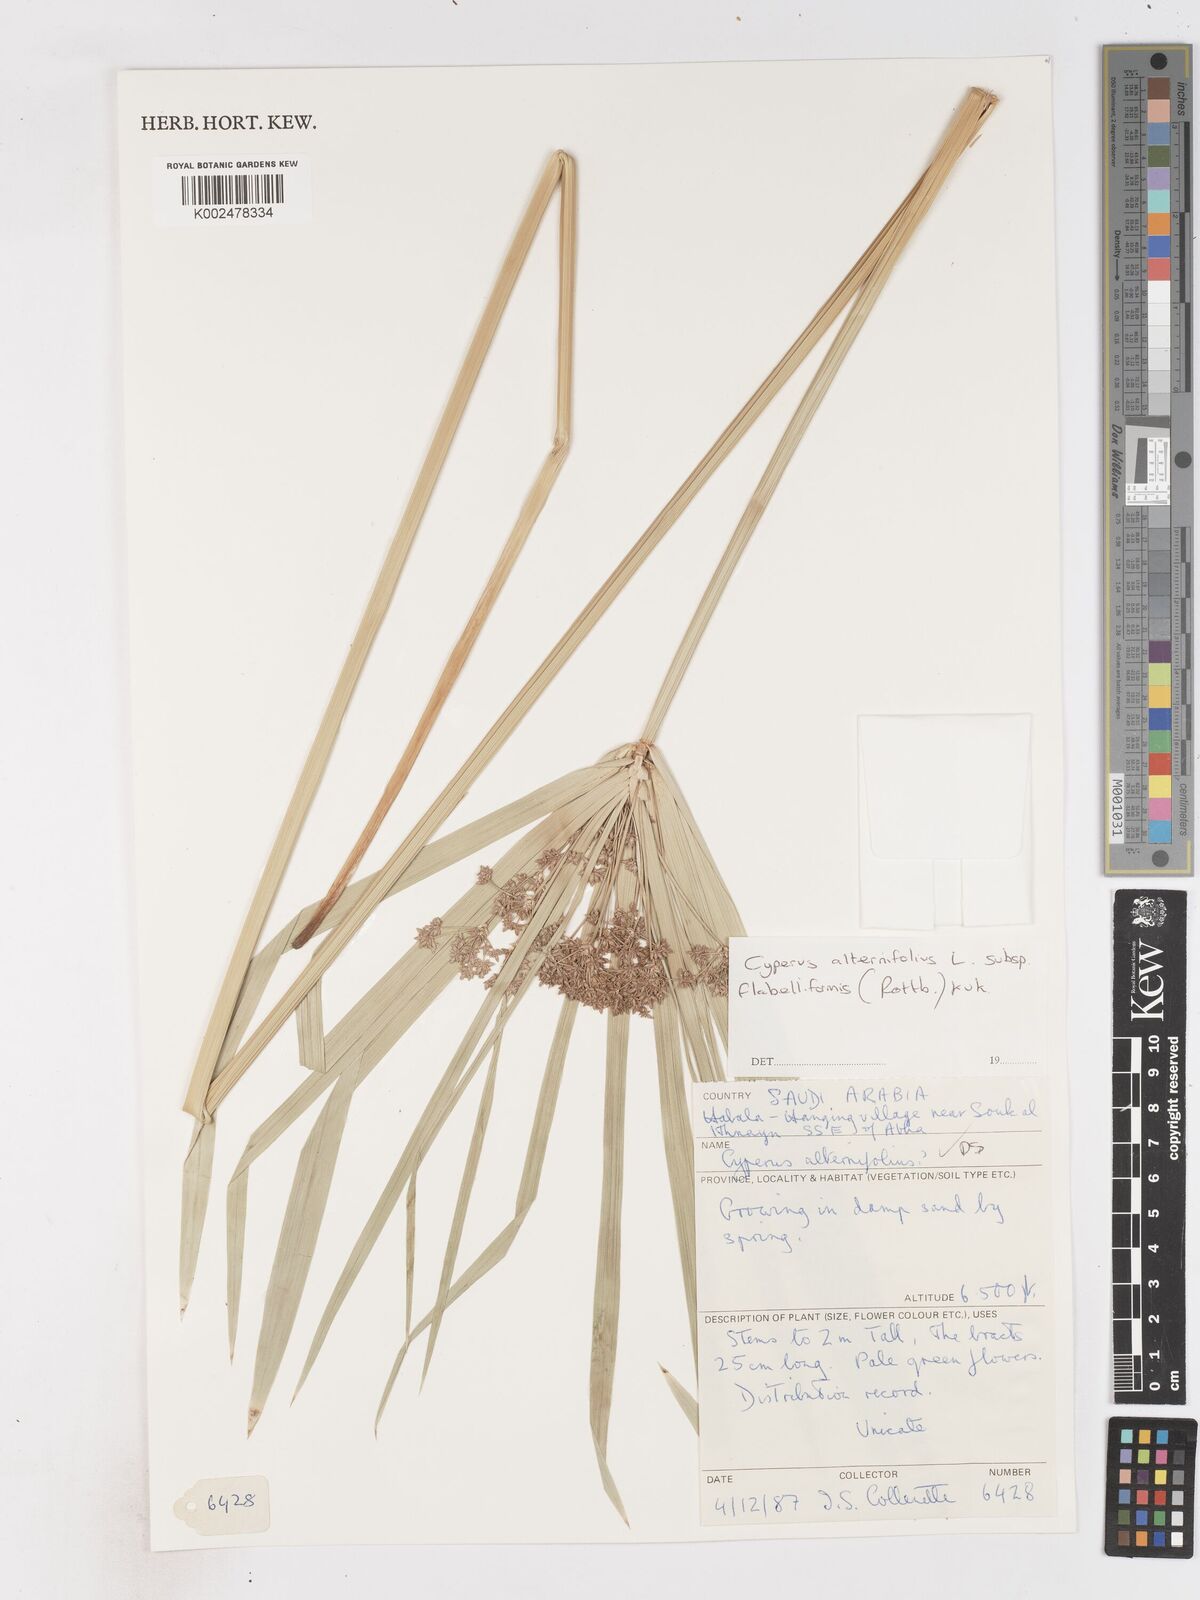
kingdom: Plantae
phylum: Tracheophyta
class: Liliopsida
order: Poales
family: Cyperaceae
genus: Cyperus
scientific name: Cyperus alternifolius
